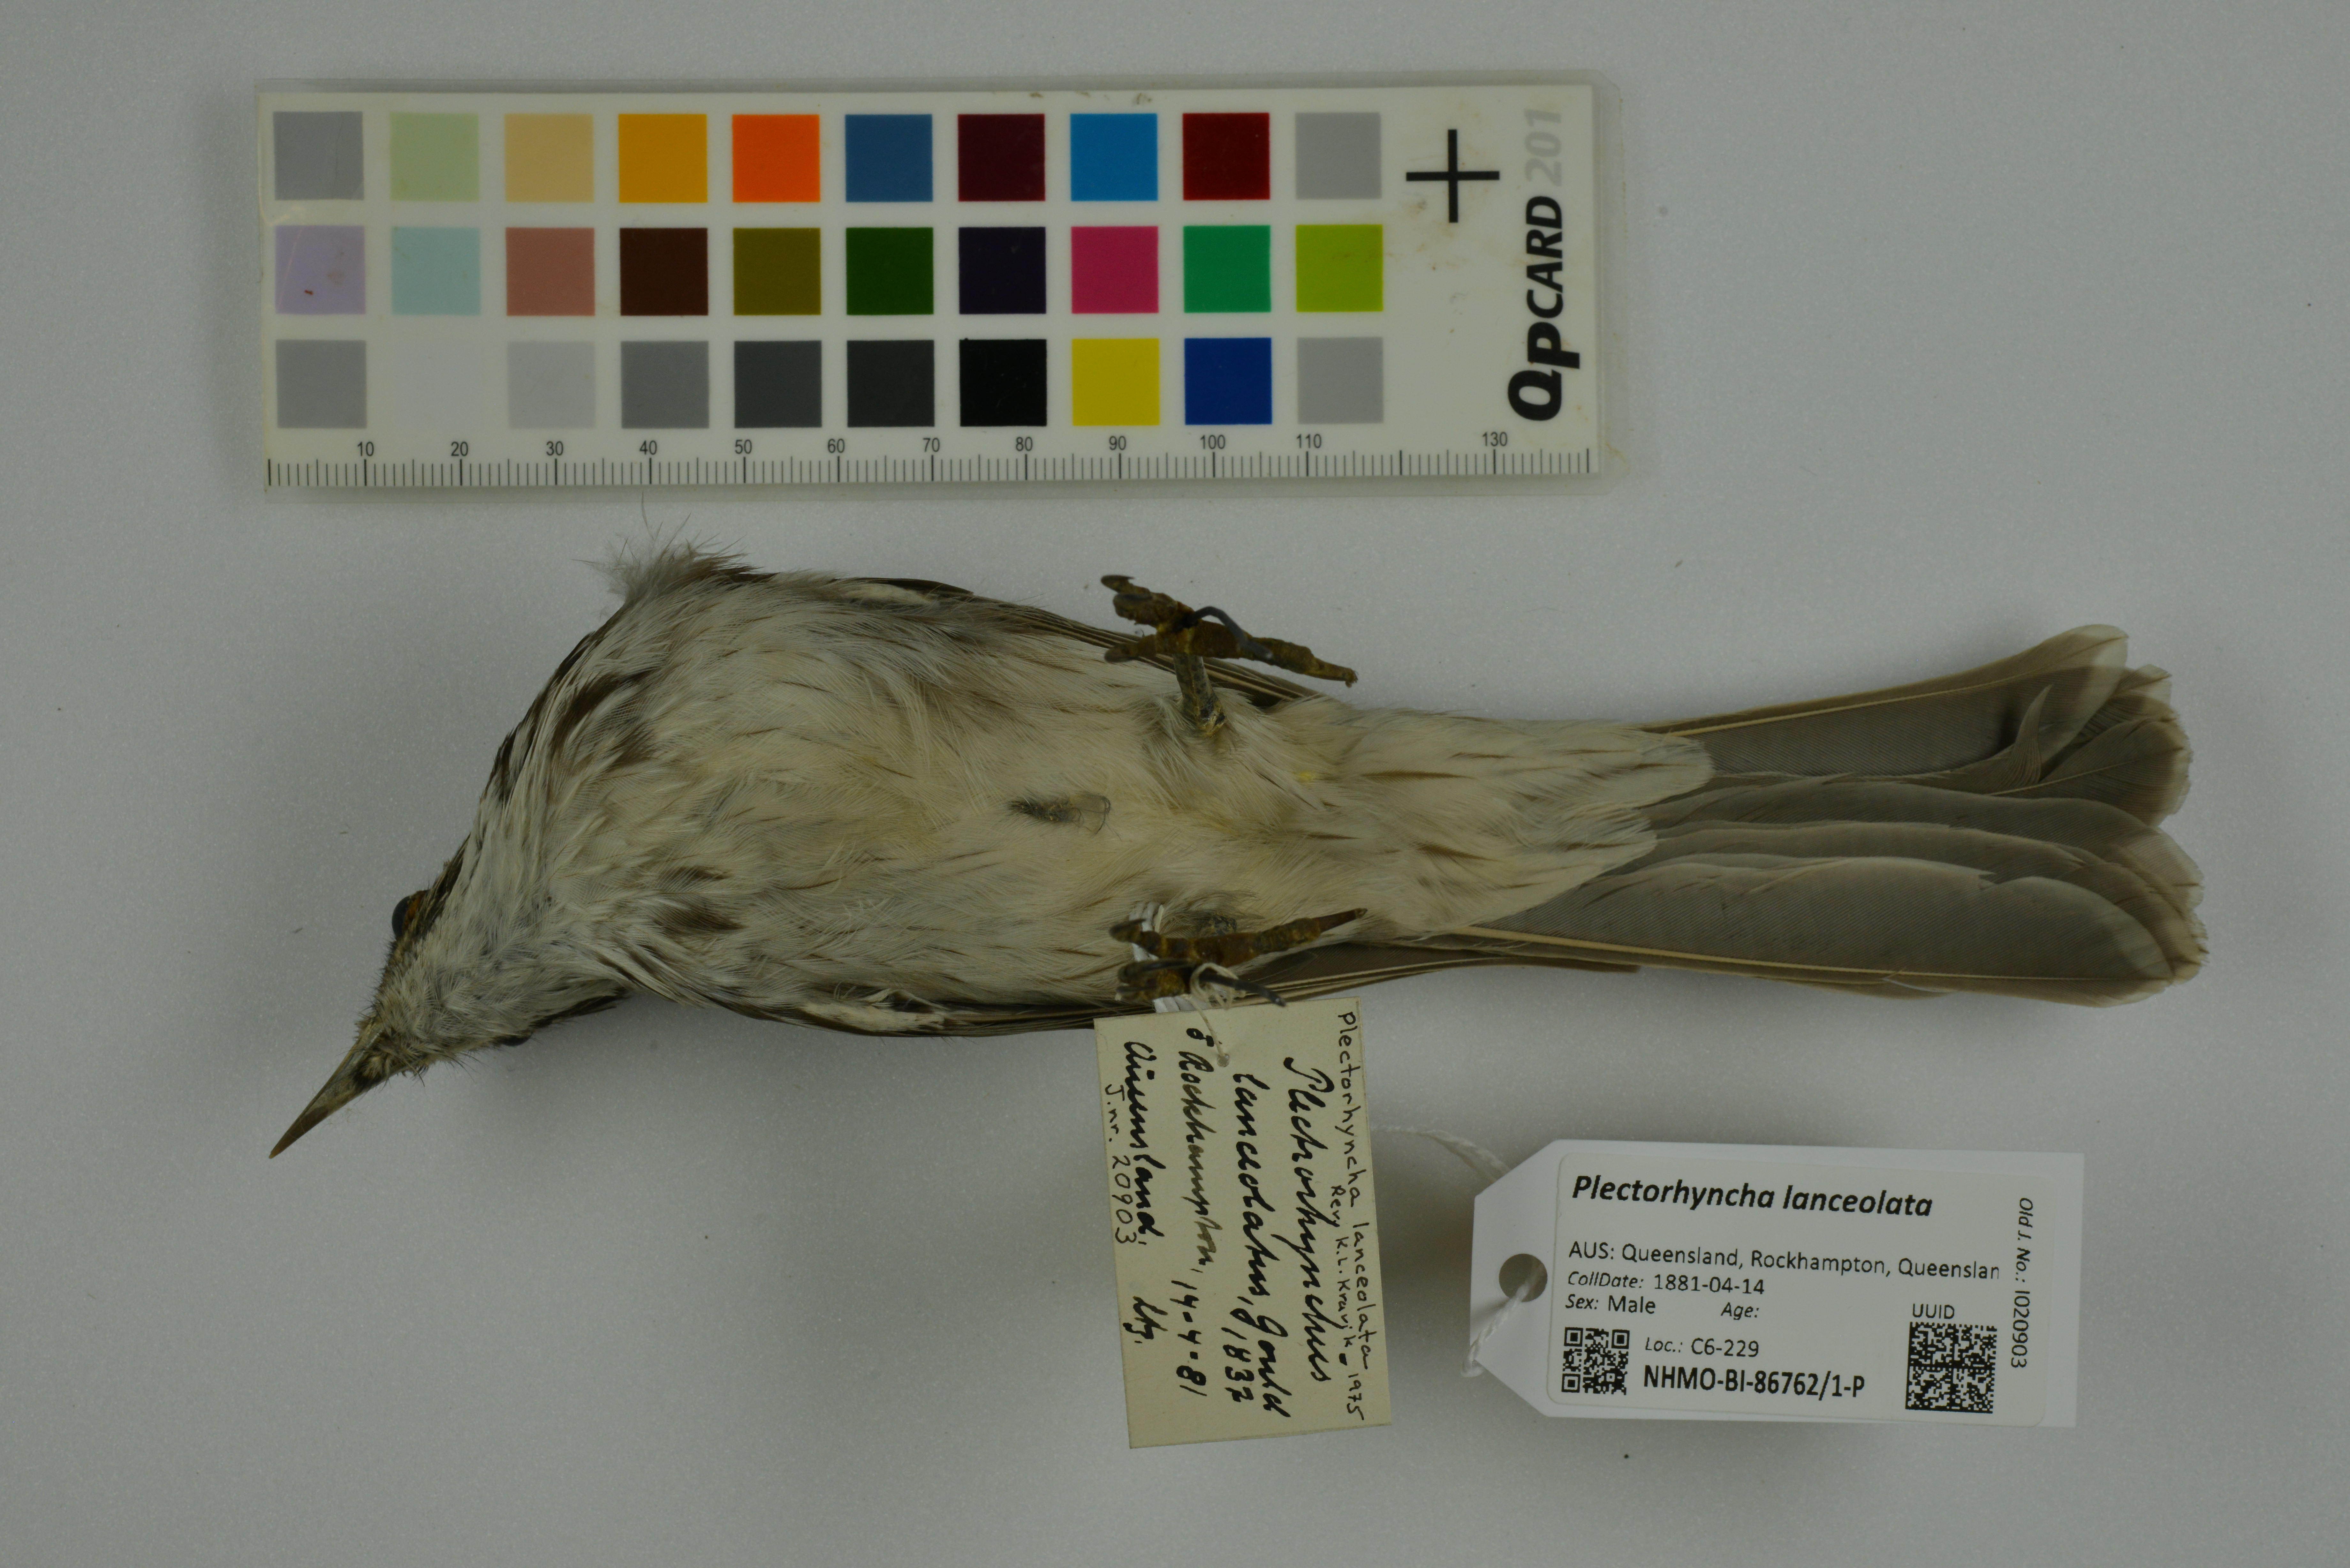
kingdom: Animalia
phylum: Chordata
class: Aves
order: Passeriformes
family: Meliphagidae
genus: Plectorhyncha
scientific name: Plectorhyncha lanceolata
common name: Striped honeyeater
